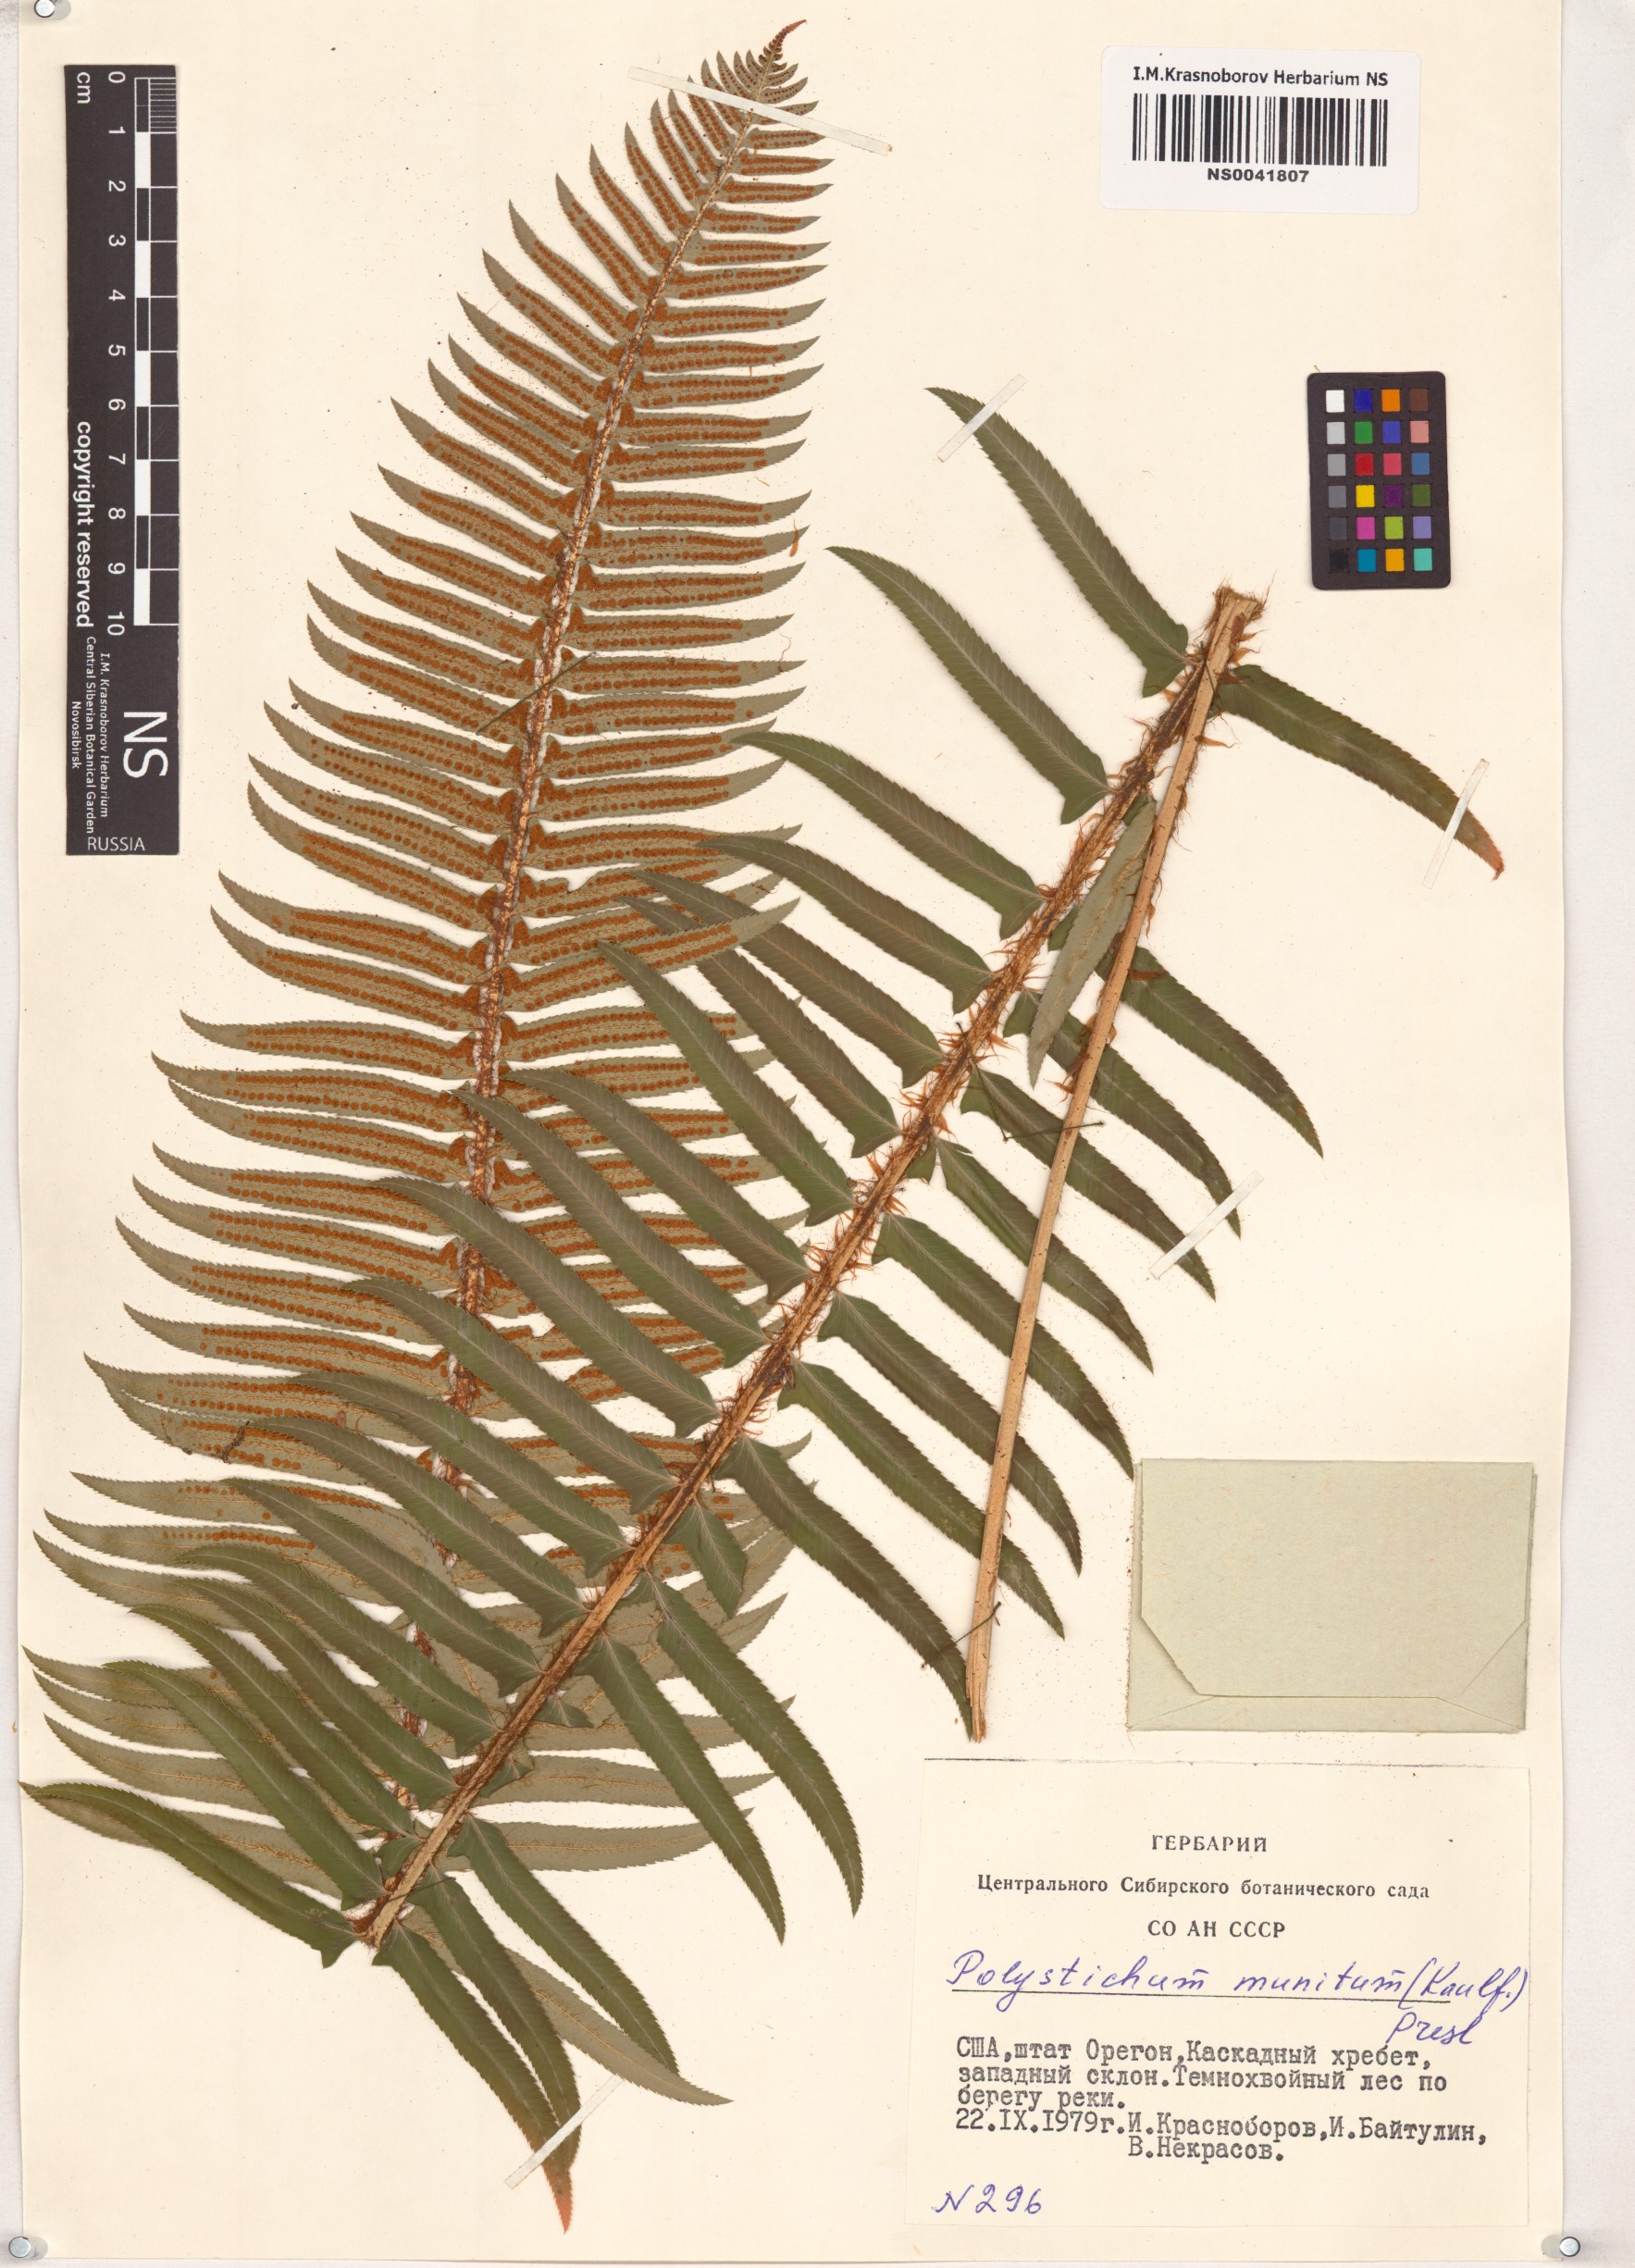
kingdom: Plantae
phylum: Tracheophyta
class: Polypodiopsida
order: Polypodiales
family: Dryopteridaceae
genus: Polystichum
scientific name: Polystichum munitum
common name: Western sword-fern
